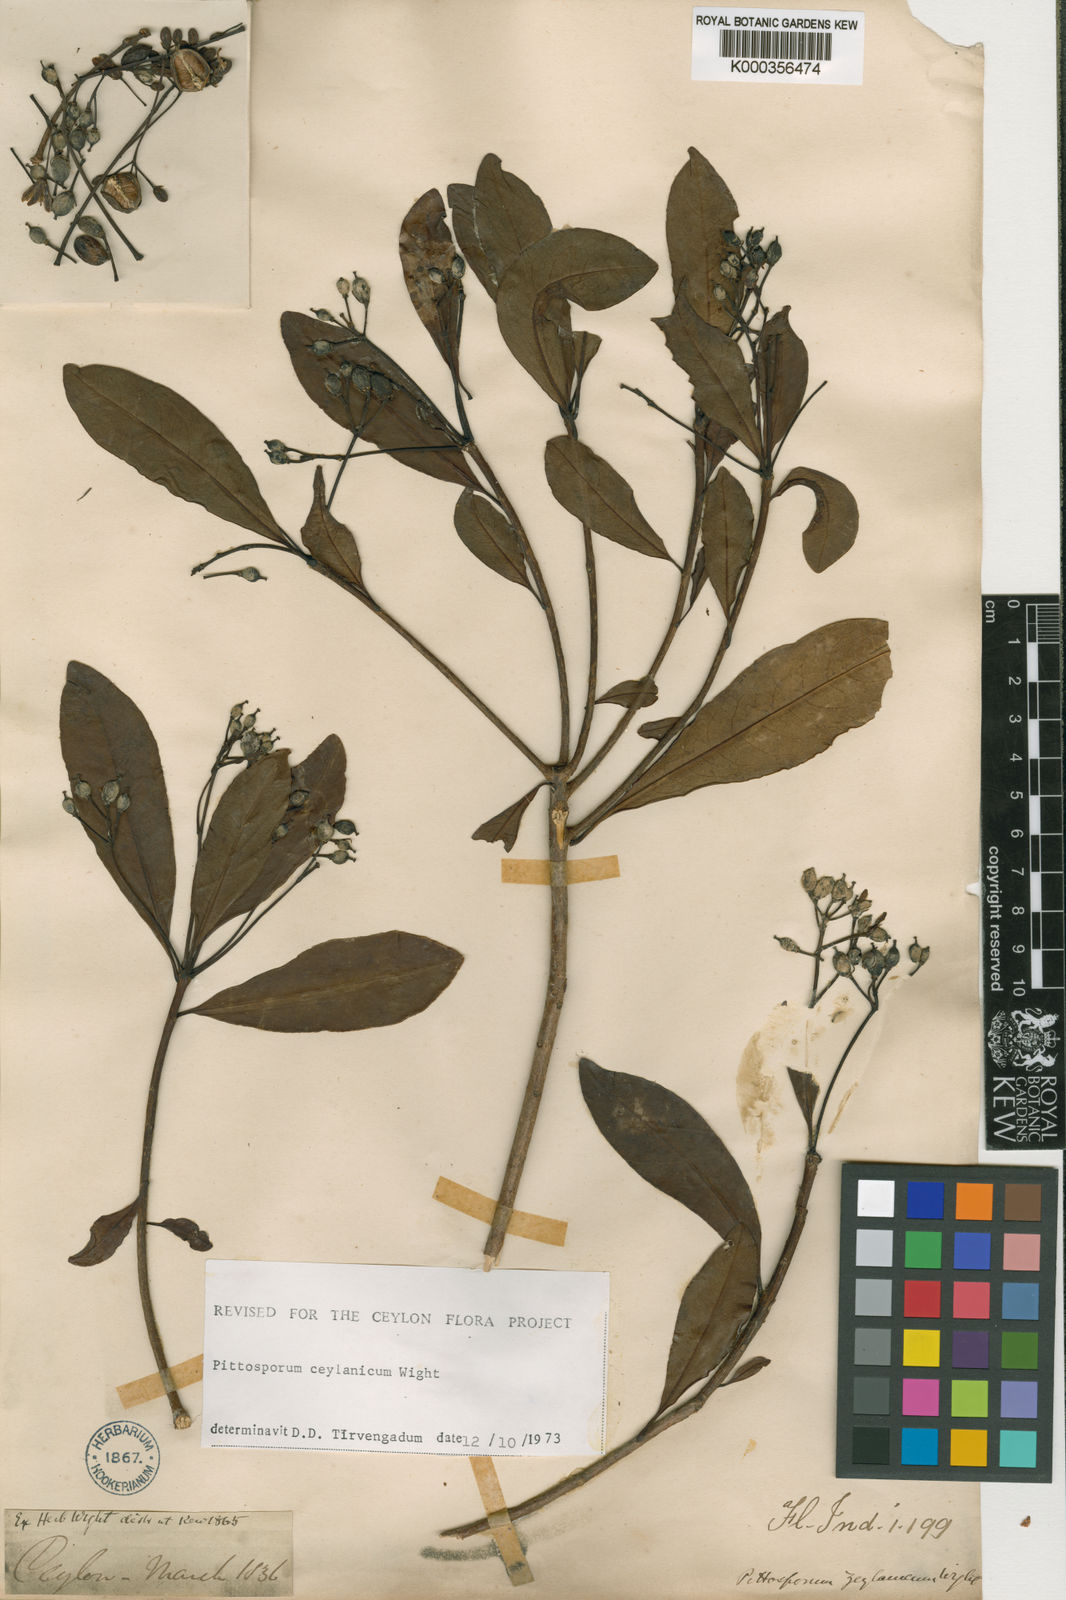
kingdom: Plantae
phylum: Tracheophyta
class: Magnoliopsida
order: Apiales
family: Pittosporaceae
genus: Pittosporum
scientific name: Pittosporum ceylanicum
